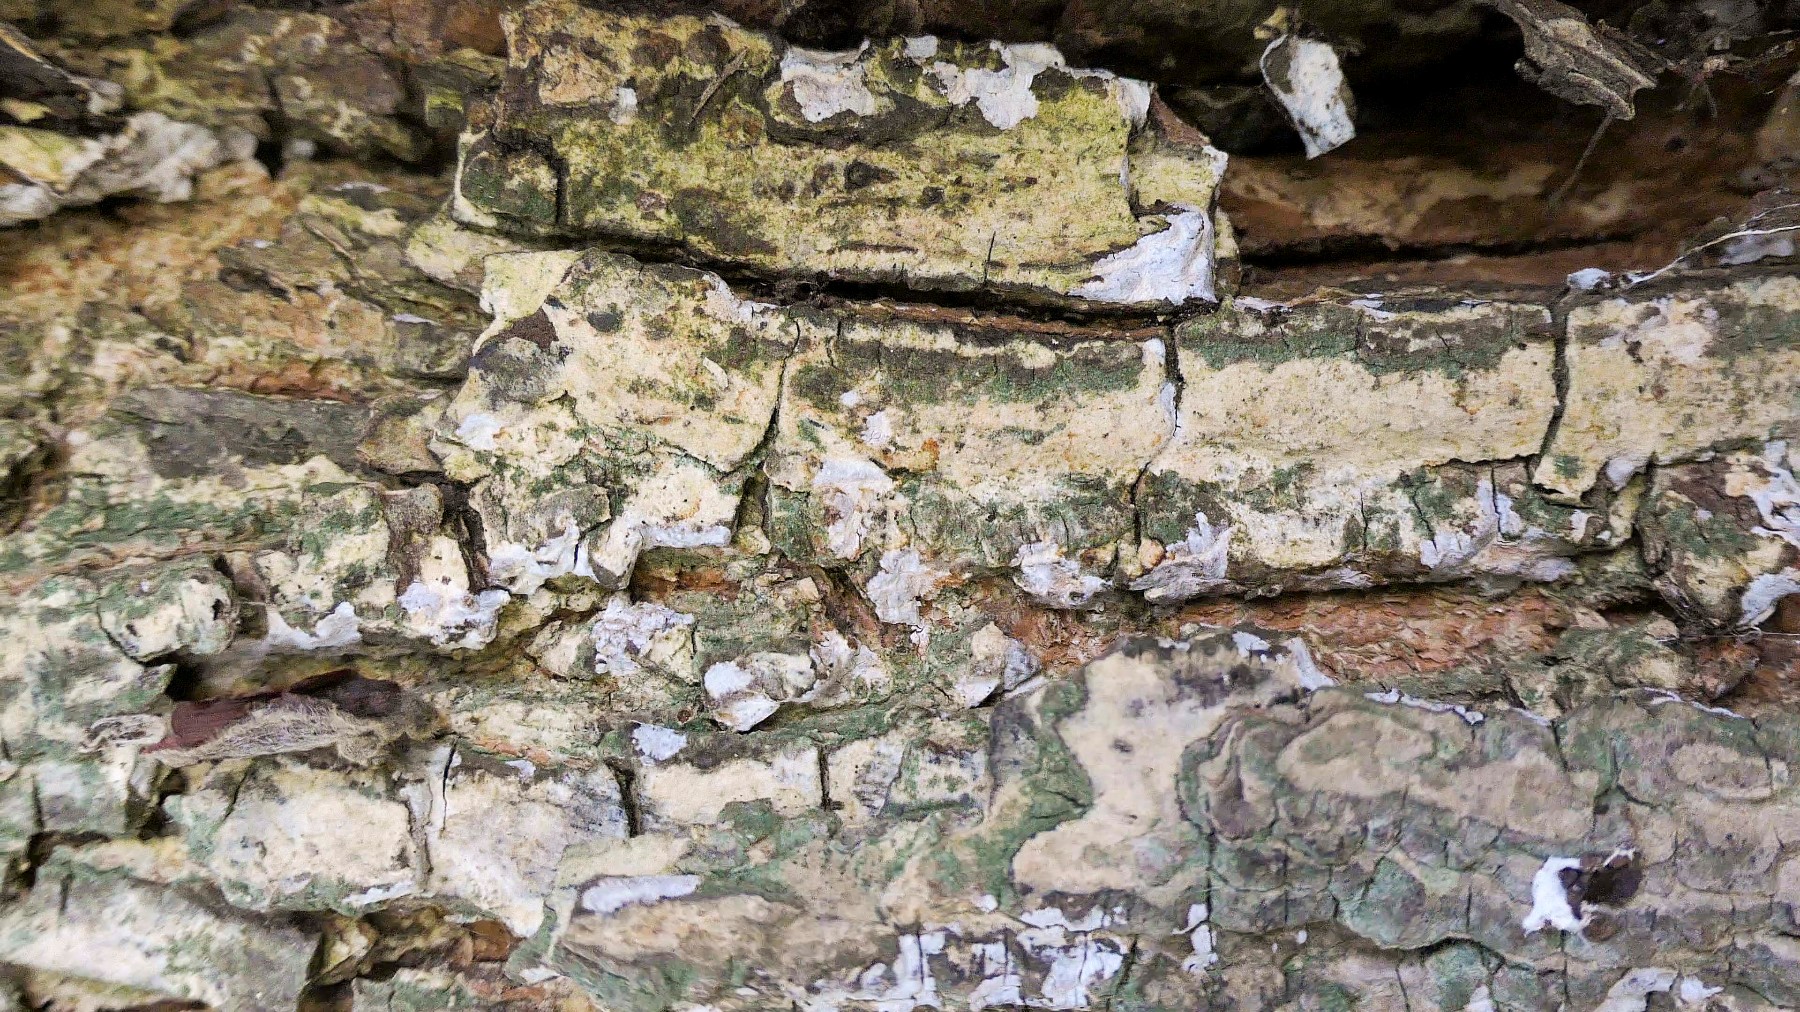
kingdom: Fungi
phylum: Basidiomycota
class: Agaricomycetes
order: Agaricales
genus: Dendrothele
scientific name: Dendrothele acerina
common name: navr-kalkplet
